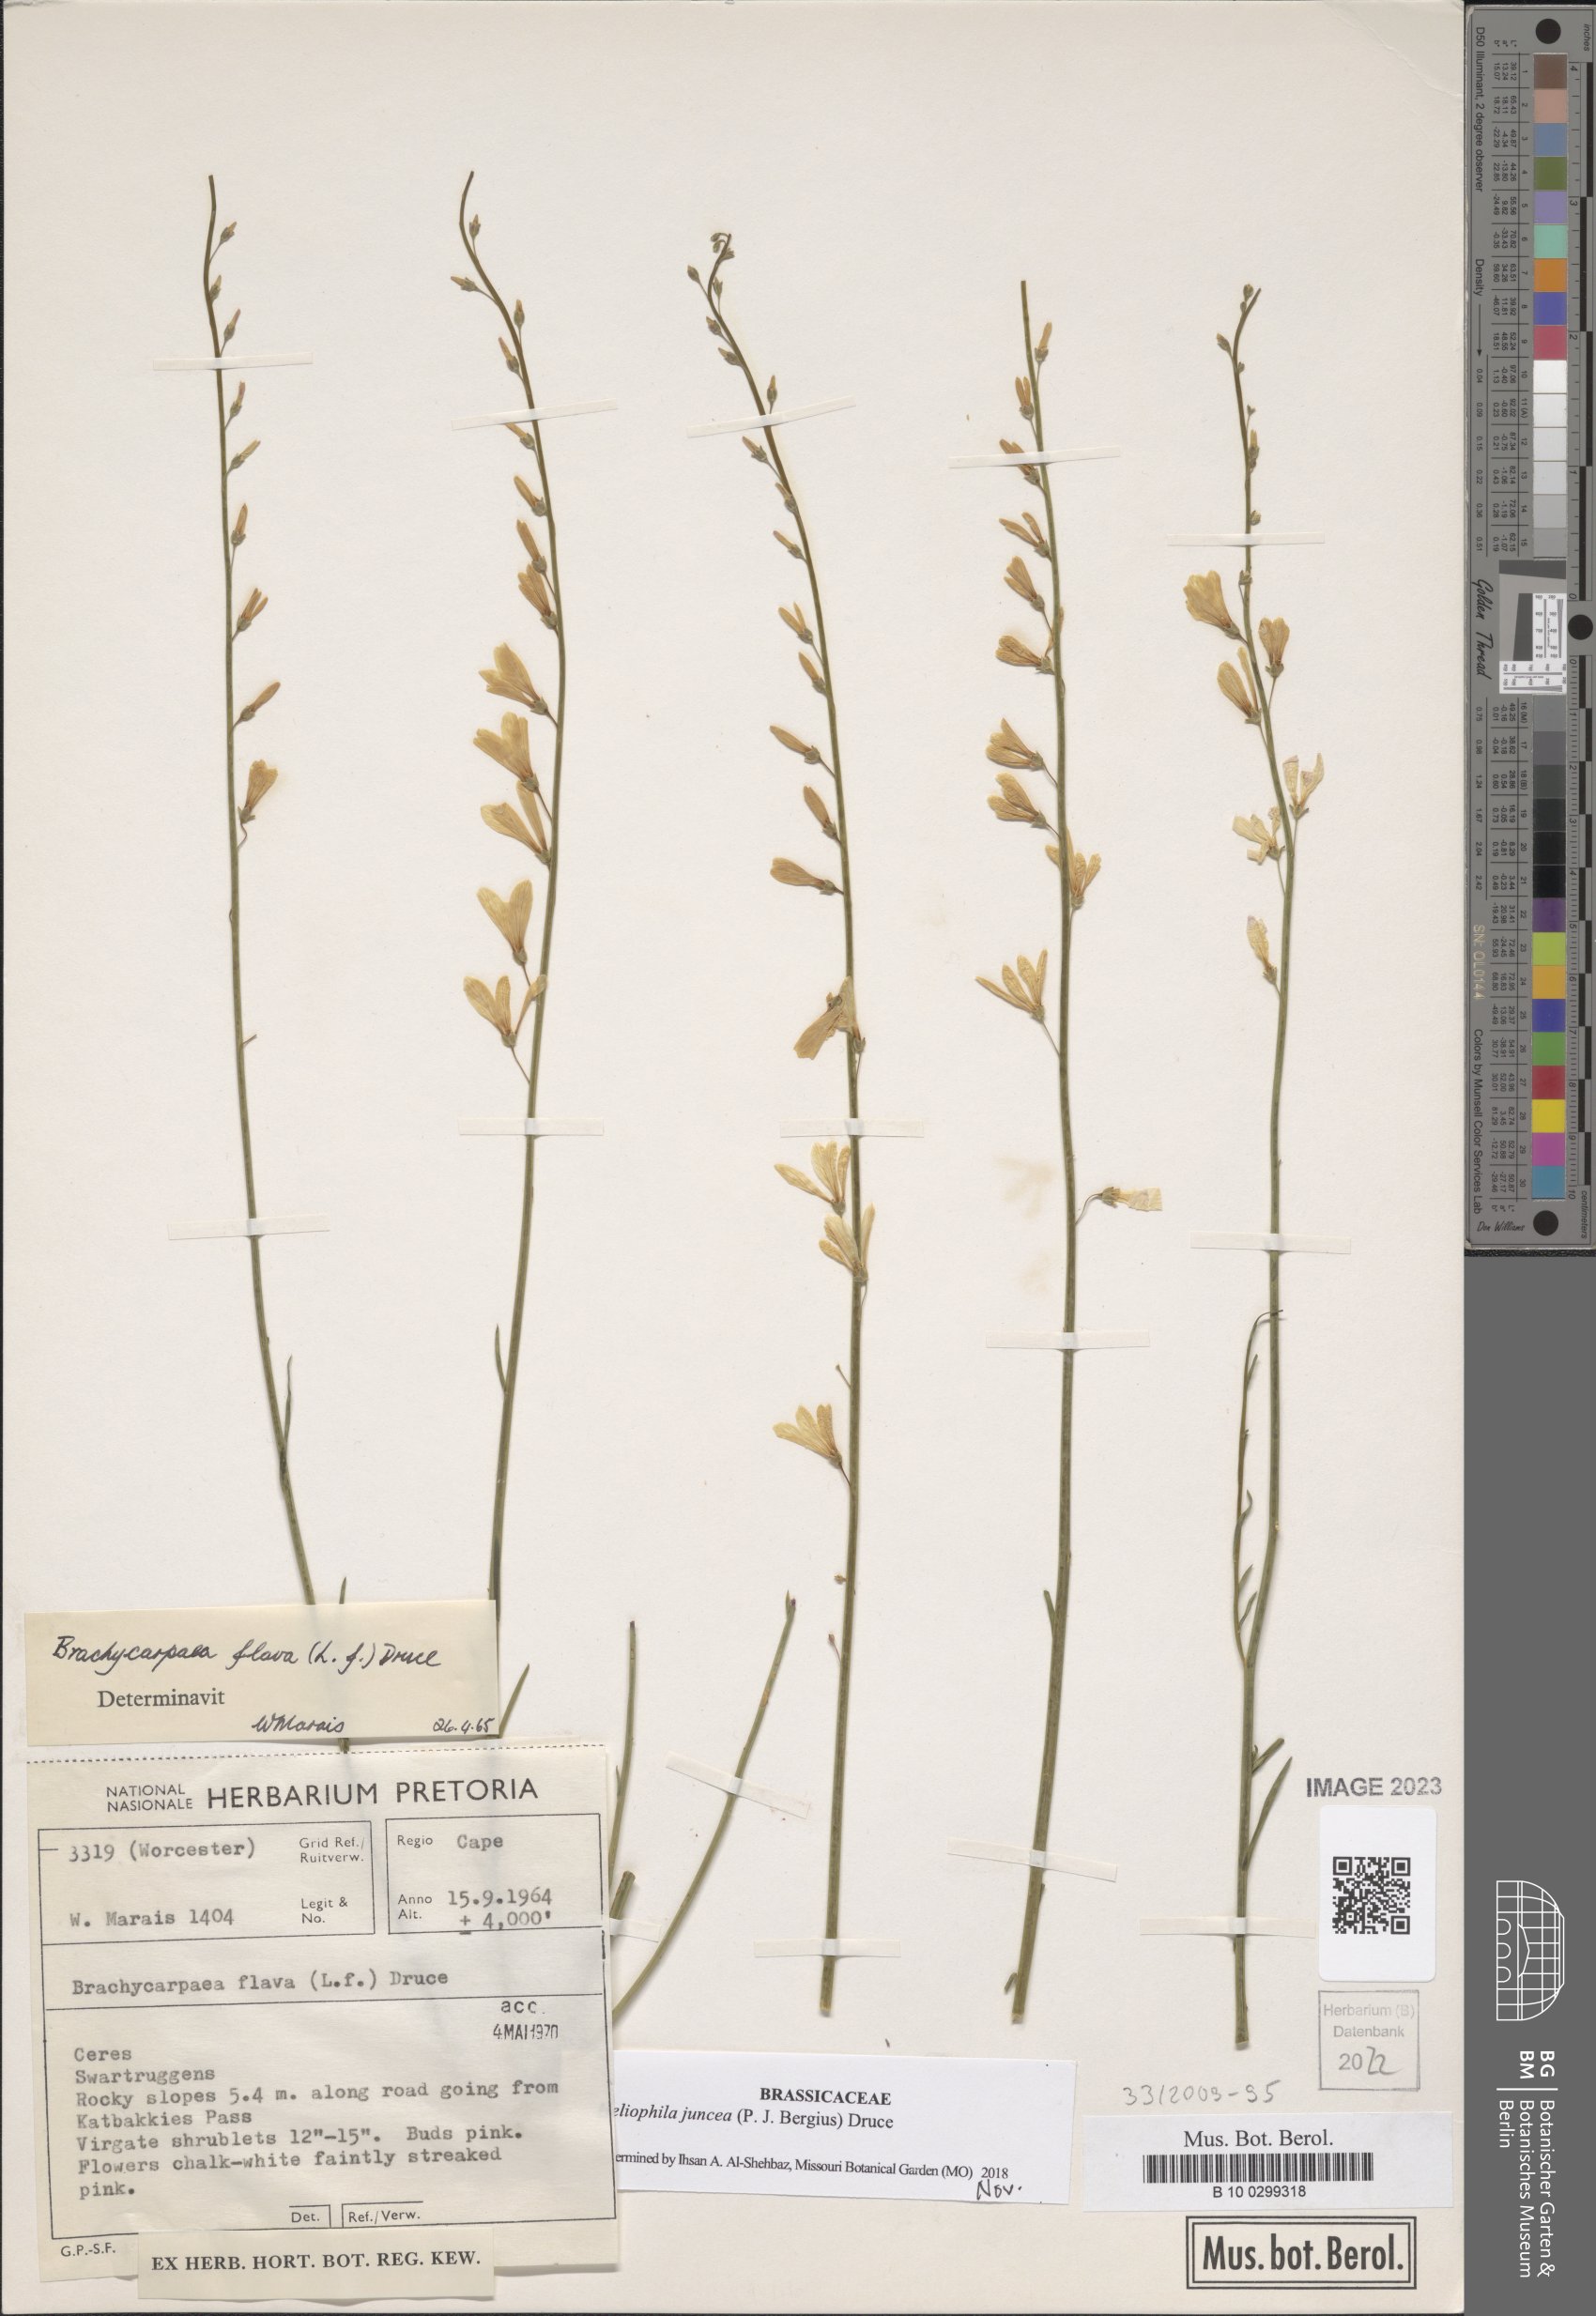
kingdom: Plantae
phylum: Tracheophyta
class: Magnoliopsida
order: Brassicales
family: Brassicaceae
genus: Heliophila
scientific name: Heliophila juncea
